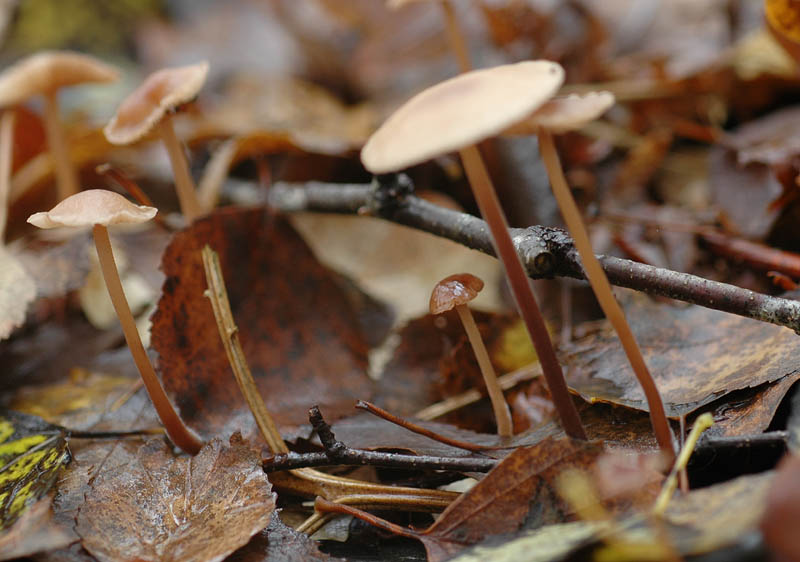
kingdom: Fungi
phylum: Basidiomycota
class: Agaricomycetes
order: Agaricales
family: Omphalotaceae
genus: Mycetinis
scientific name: Mycetinis querceus
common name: ege-løghat
